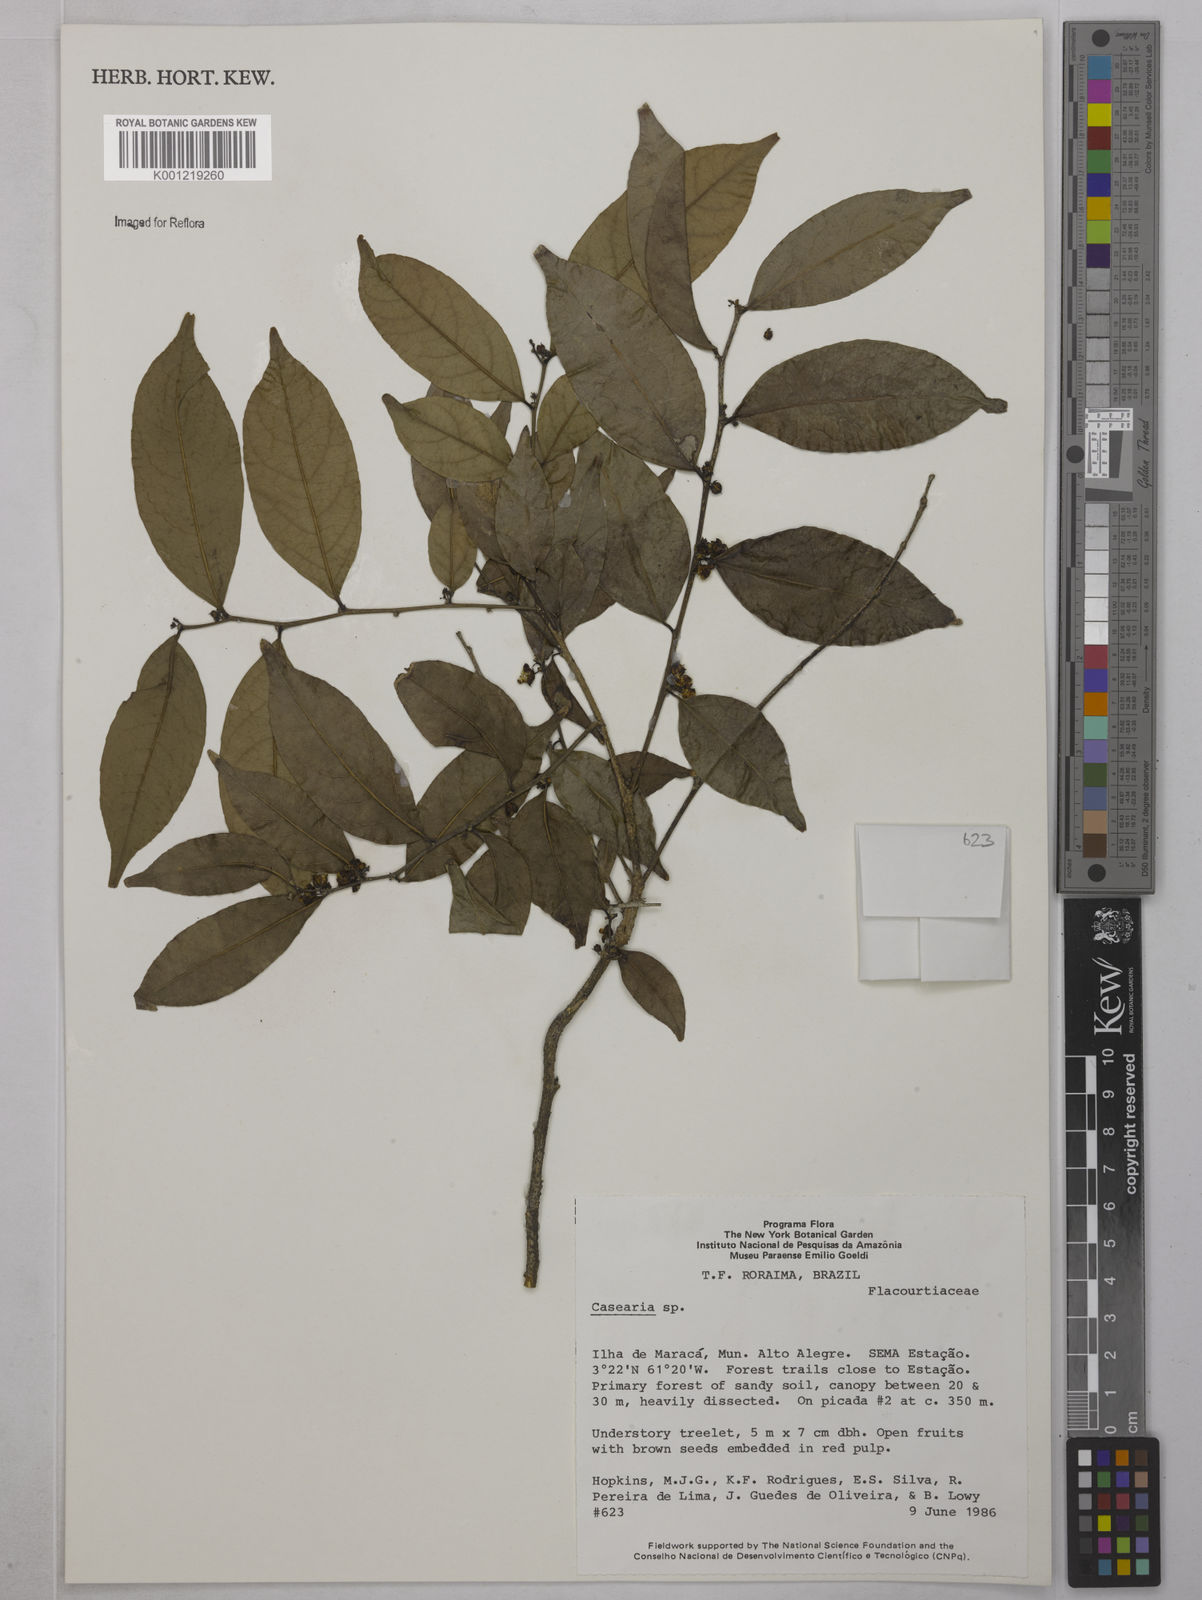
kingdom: Plantae
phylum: Tracheophyta
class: Magnoliopsida
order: Malpighiales
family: Salicaceae
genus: Casearia
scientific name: Casearia
